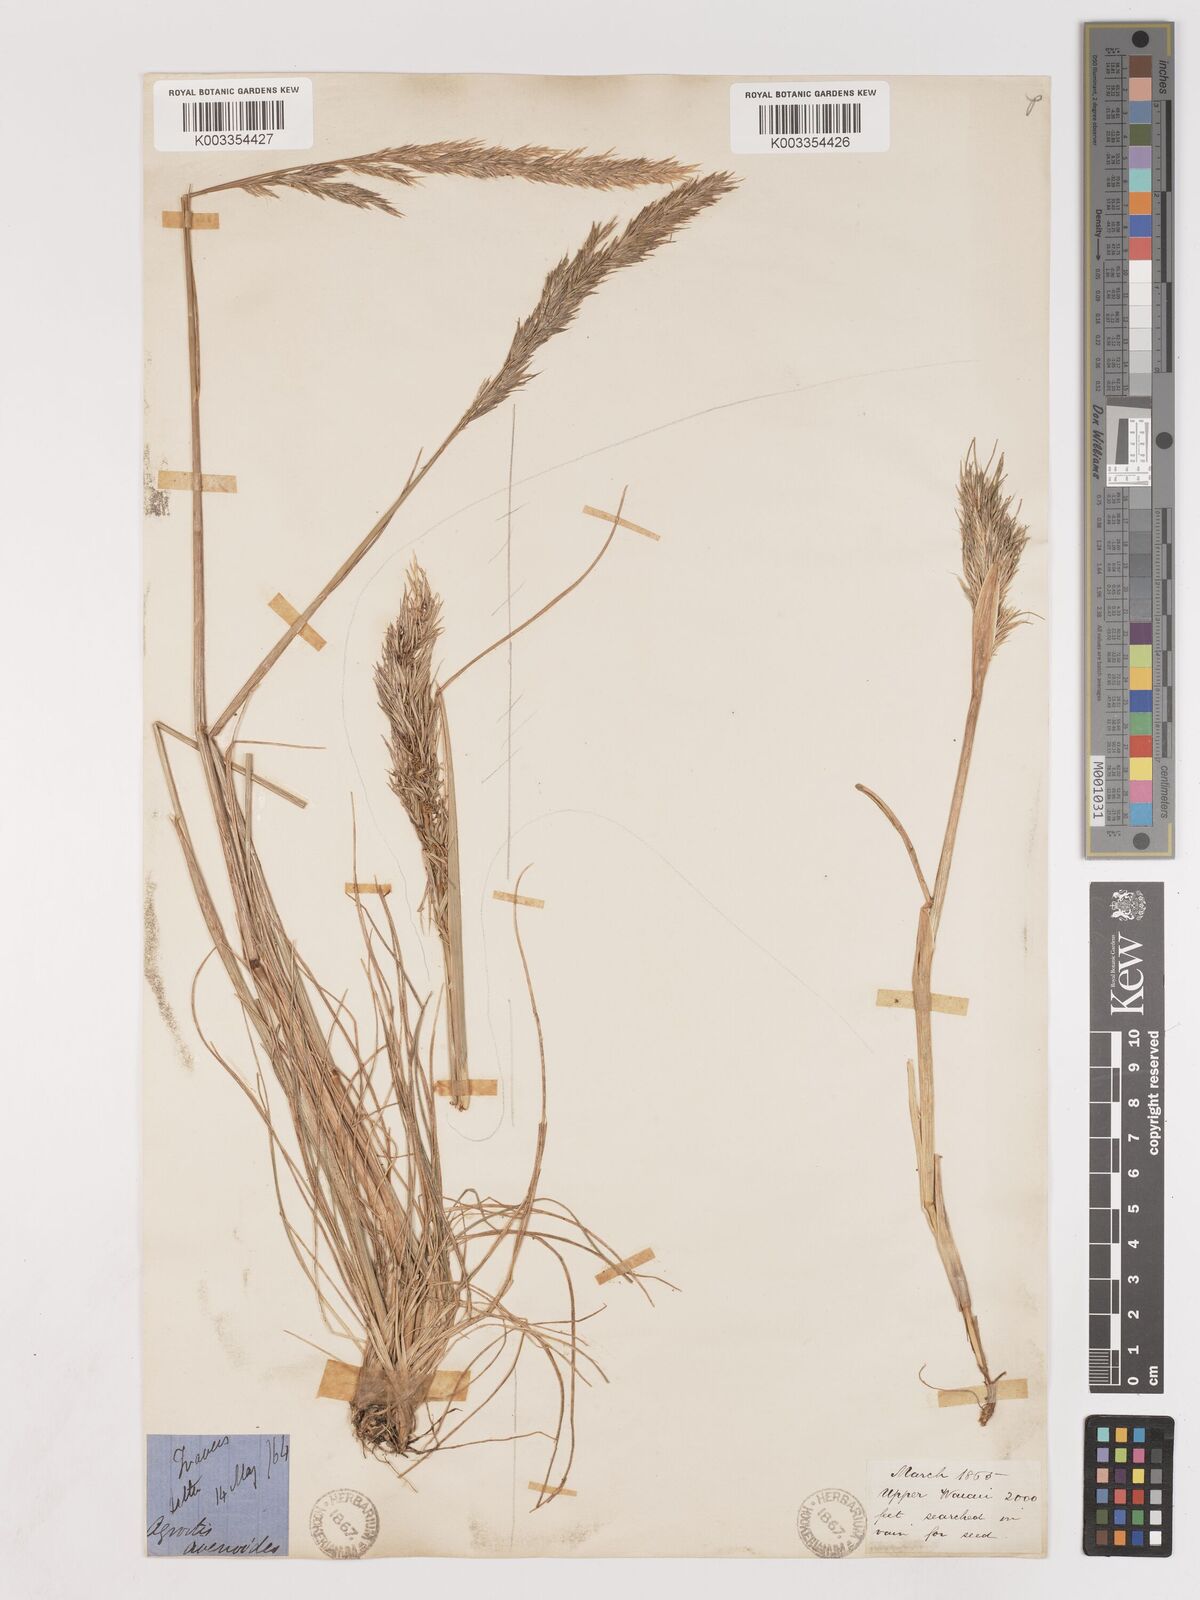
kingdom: Plantae
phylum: Tracheophyta
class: Liliopsida
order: Poales
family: Poaceae
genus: Calamagrostis
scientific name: Calamagrostis avenoides
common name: Mountain oat grass
